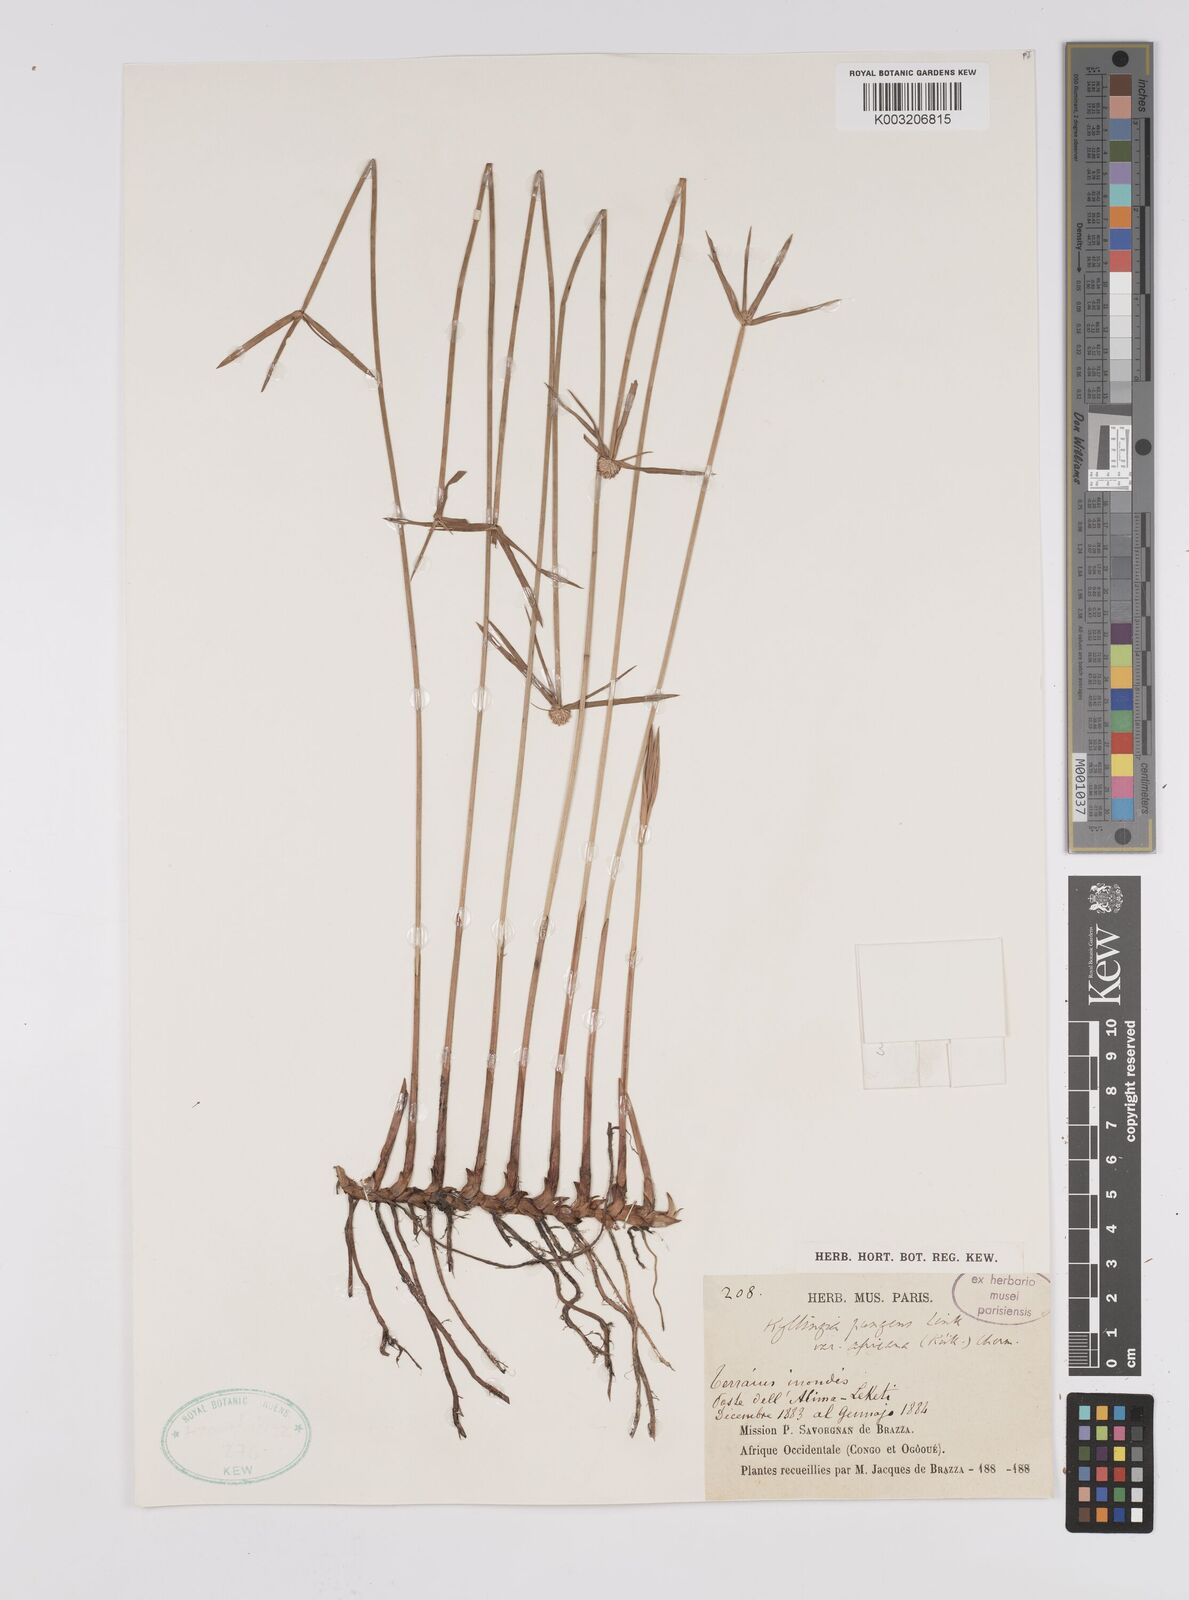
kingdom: Plantae
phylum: Tracheophyta
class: Liliopsida
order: Poales
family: Cyperaceae
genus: Cyperus
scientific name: Cyperus
